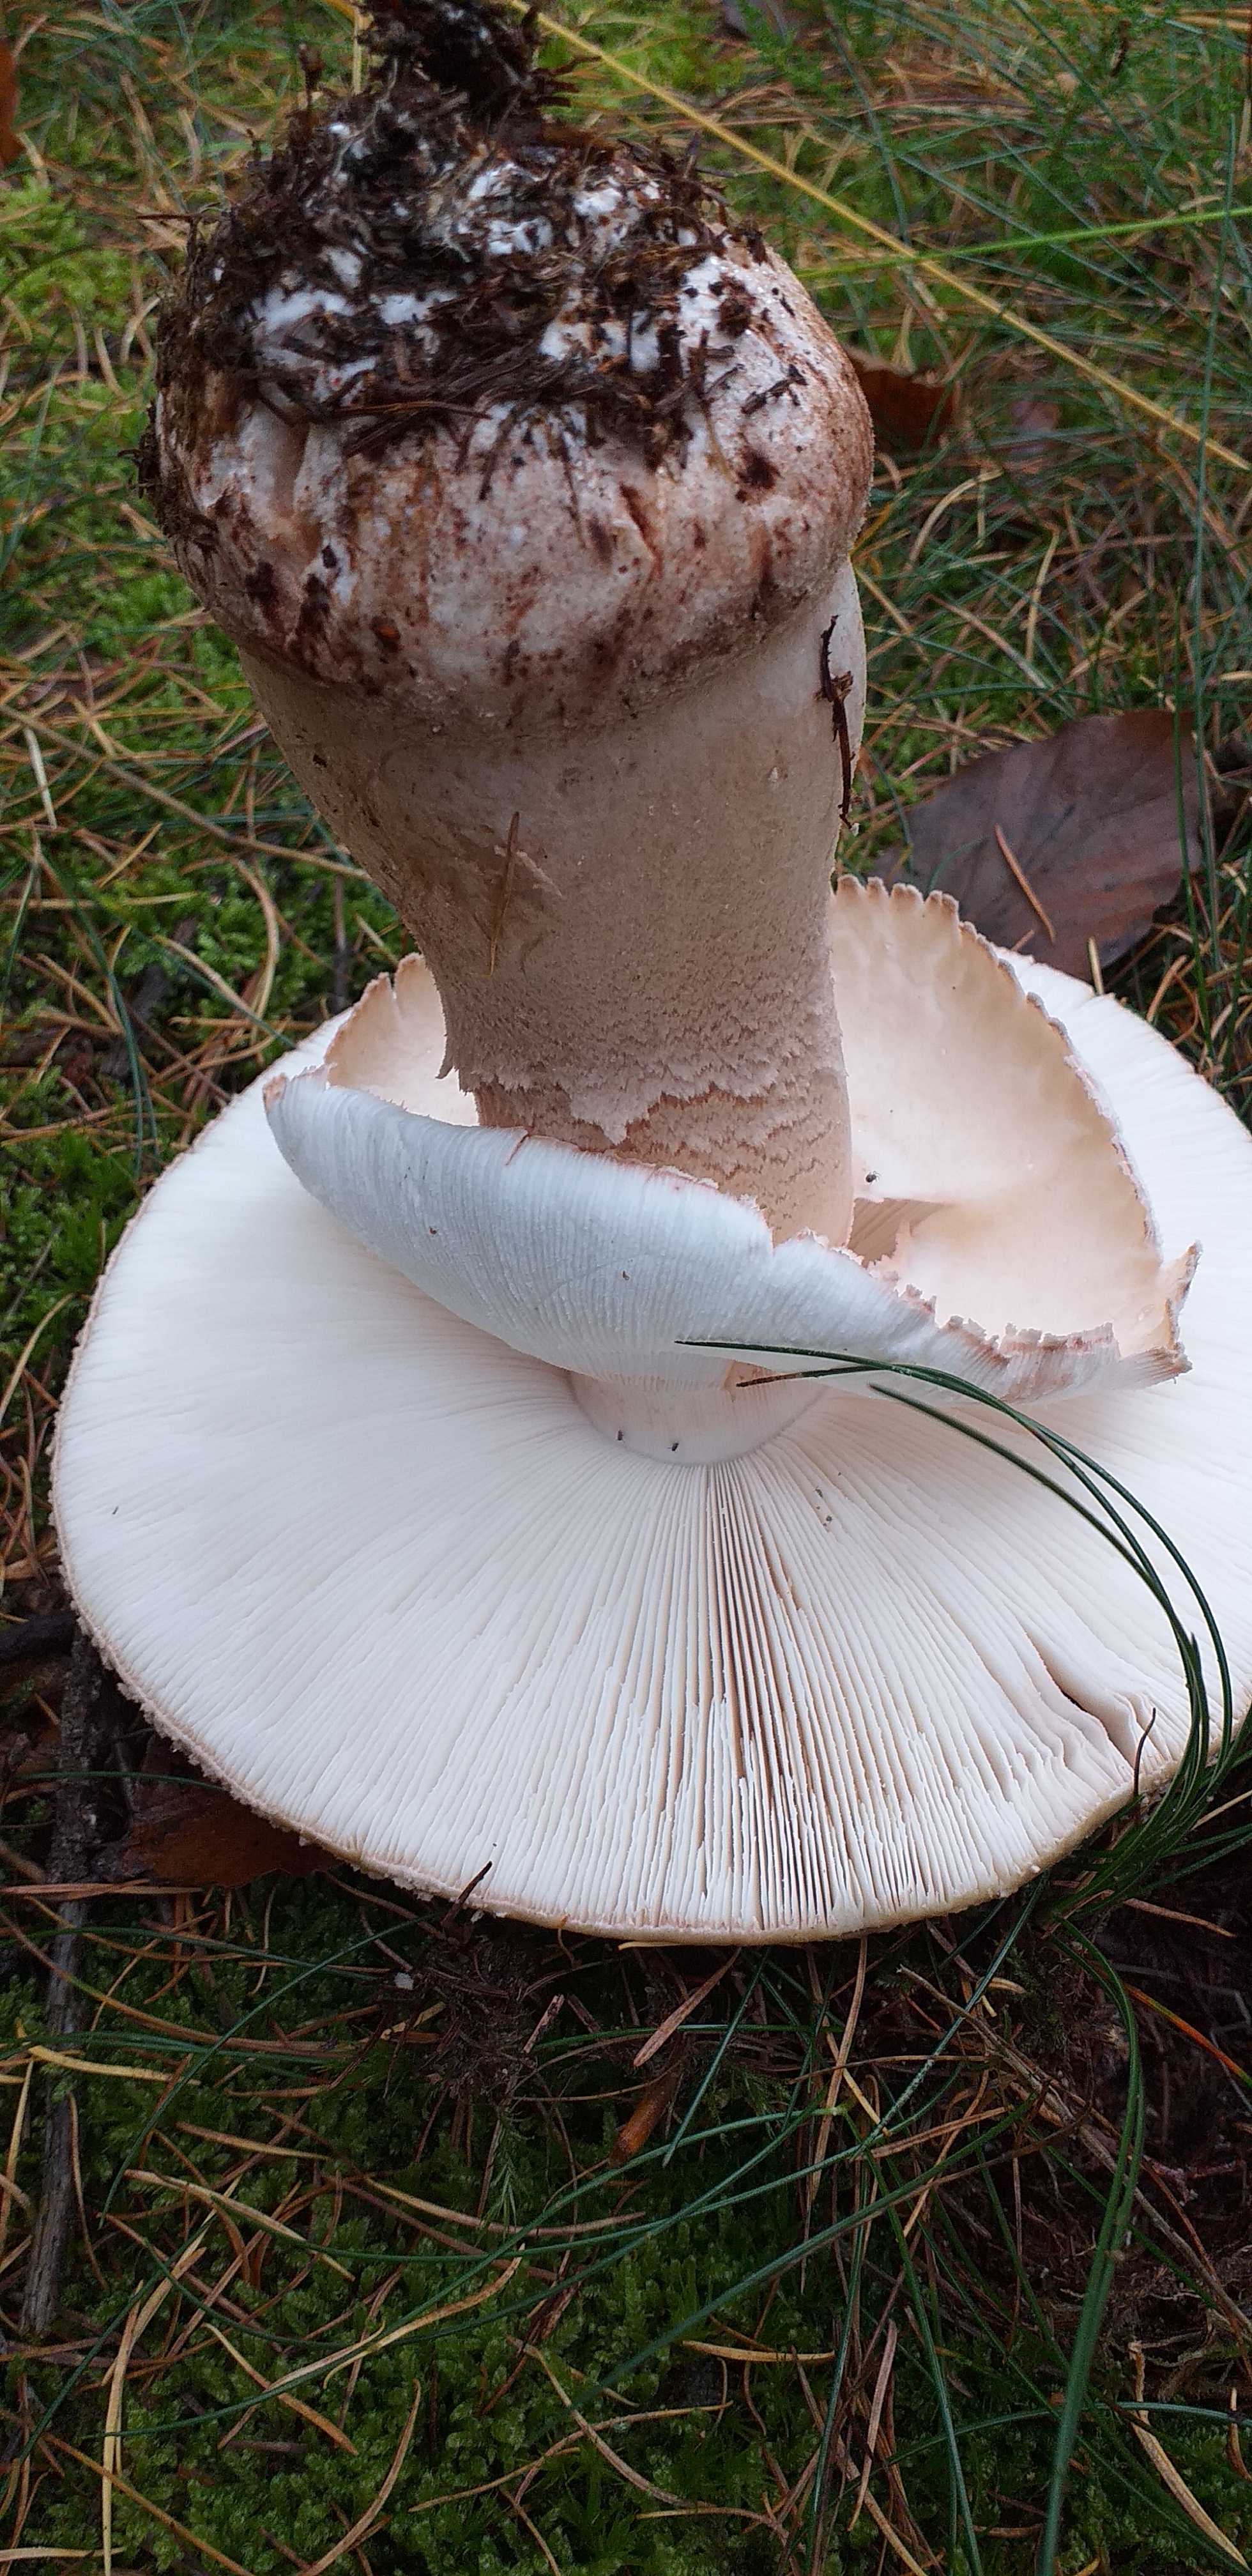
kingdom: Fungi
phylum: Basidiomycota
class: Agaricomycetes
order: Agaricales
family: Amanitaceae
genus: Amanita
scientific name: Amanita rubescens
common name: rødmende fluesvamp
